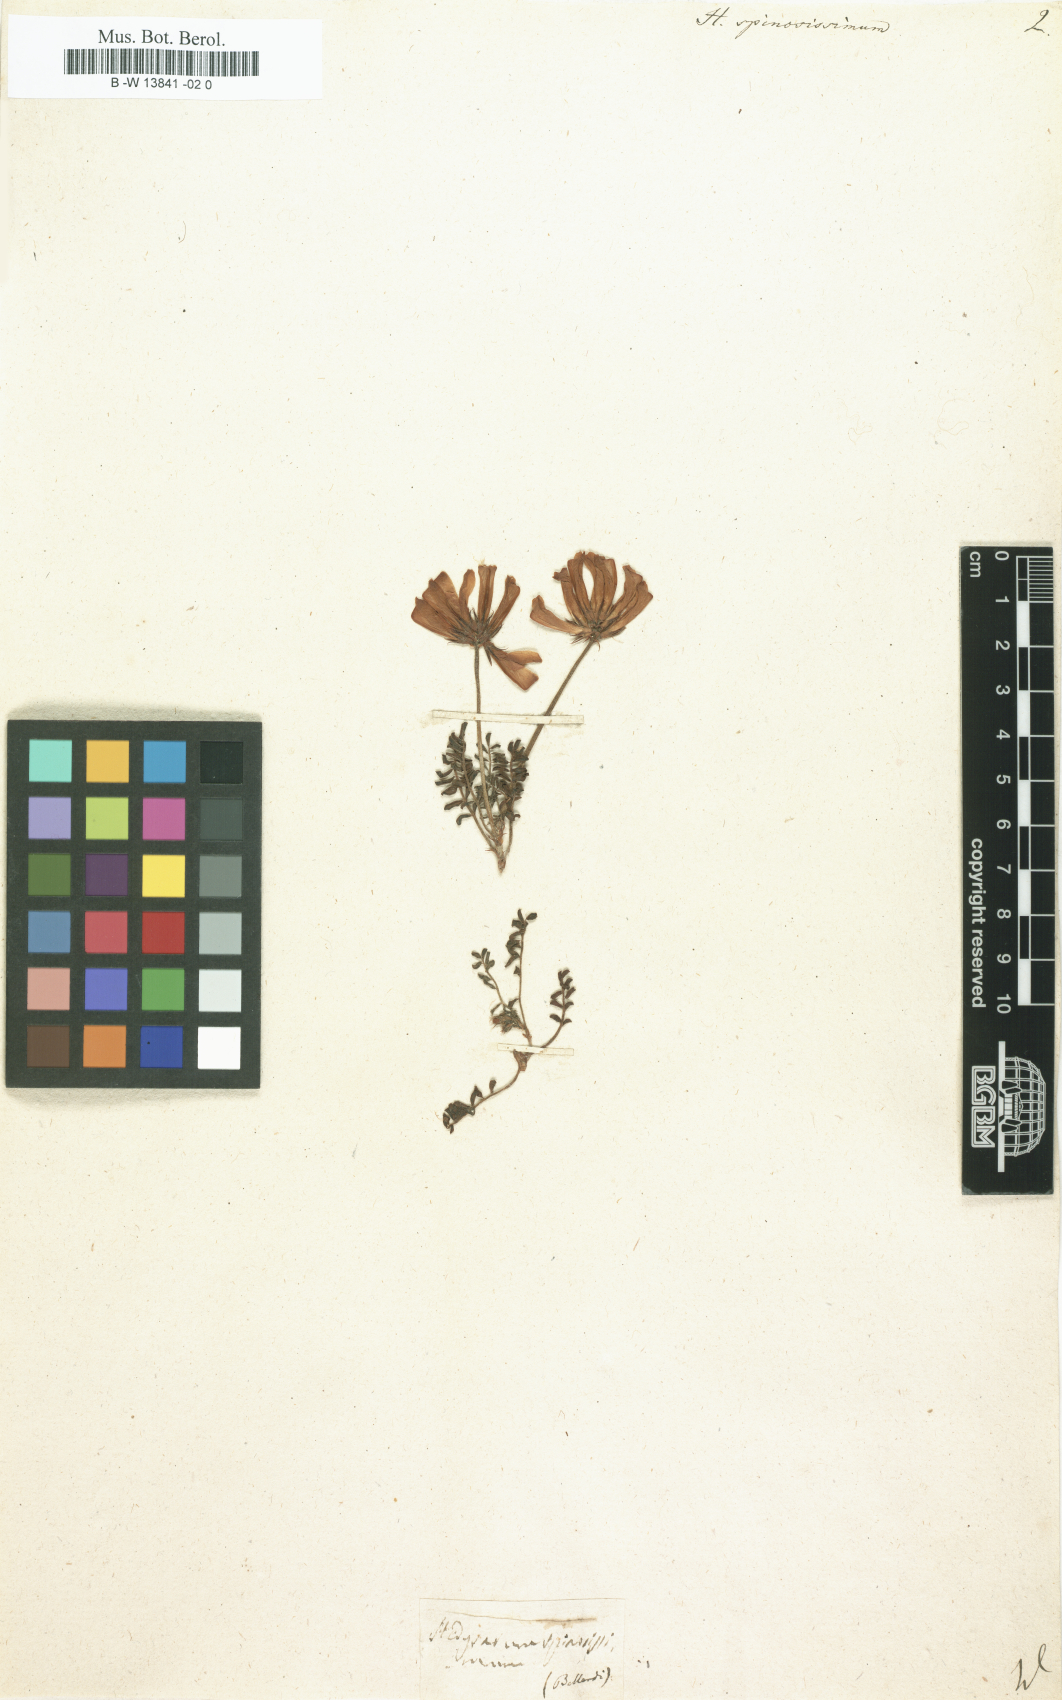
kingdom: Plantae
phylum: Tracheophyta
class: Magnoliopsida
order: Fabales
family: Fabaceae
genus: Hedysarum
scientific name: Hedysarum spinosissimum
